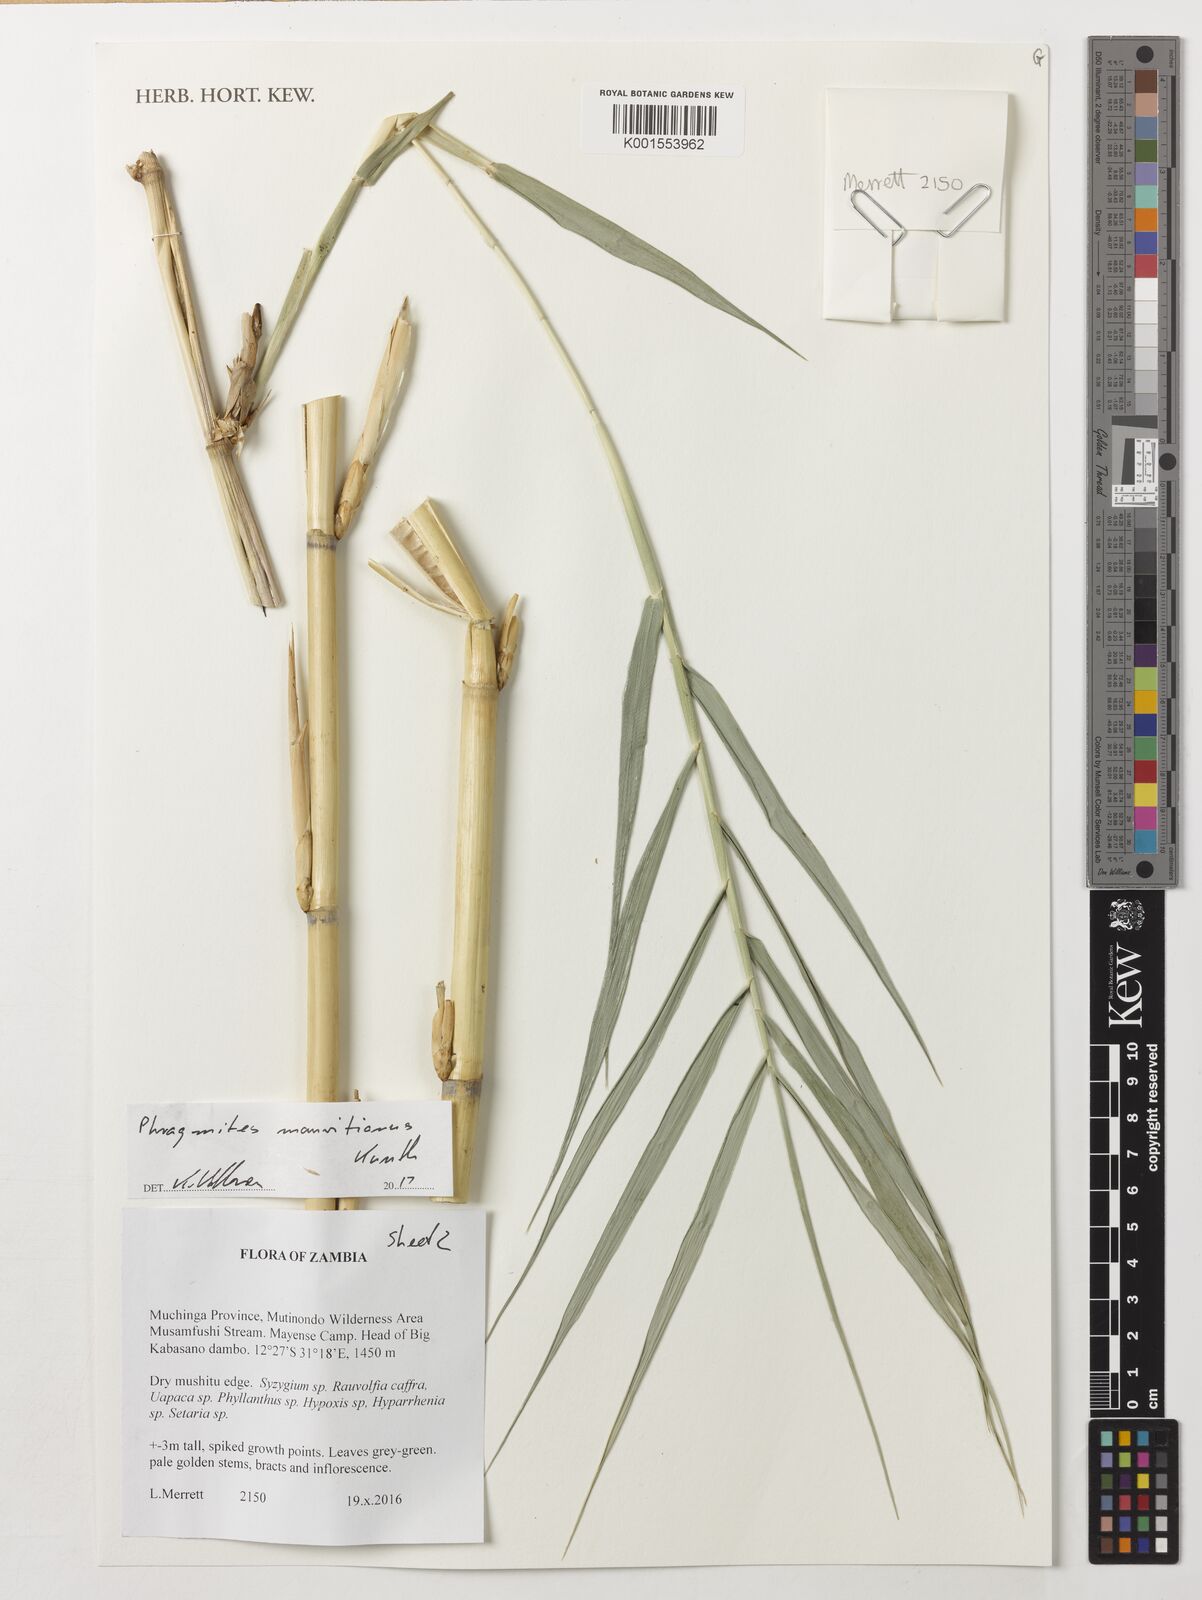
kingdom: Plantae
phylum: Tracheophyta
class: Liliopsida
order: Poales
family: Poaceae
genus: Phragmites
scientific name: Phragmites mauritianus
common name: Reed grass
